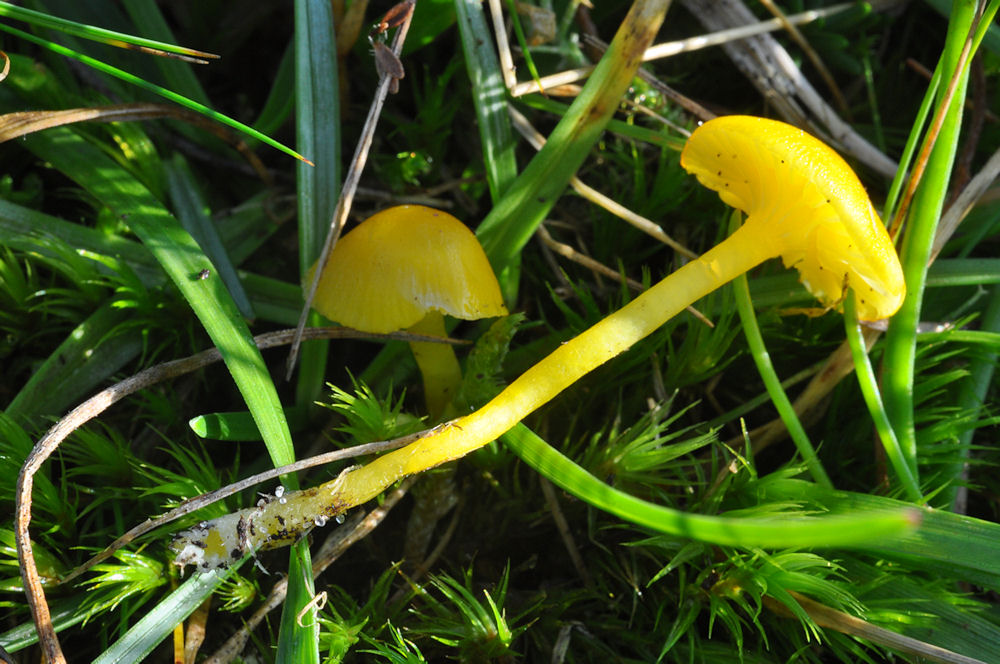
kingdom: Fungi
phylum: Basidiomycota
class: Agaricomycetes
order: Agaricales
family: Hygrophoraceae
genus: Hygrocybe
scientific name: Hygrocybe ceracea
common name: voksgul vokshat
